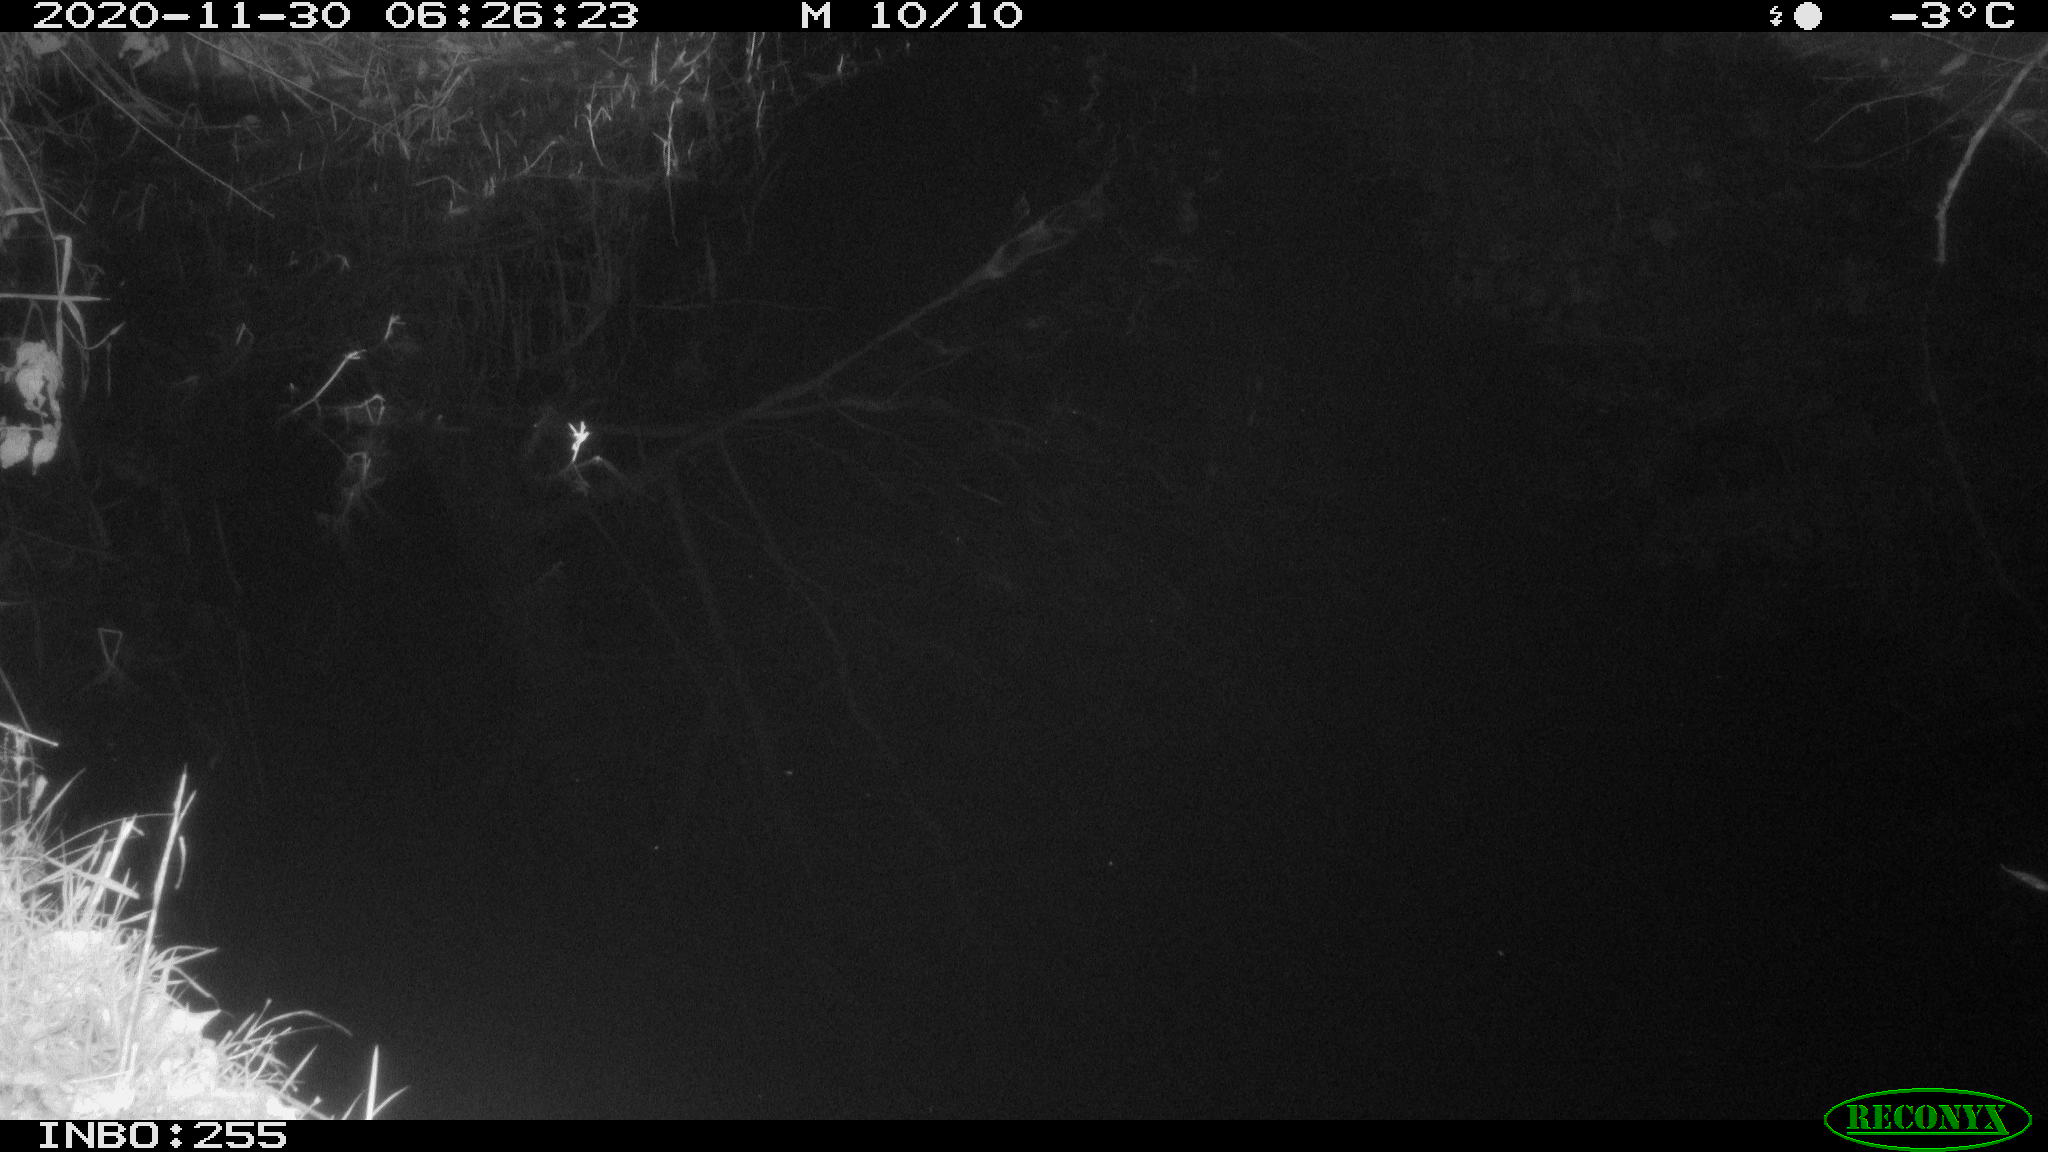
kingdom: Animalia
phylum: Chordata
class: Mammalia
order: Rodentia
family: Muridae
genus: Rattus
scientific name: Rattus norvegicus
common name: Brown rat
